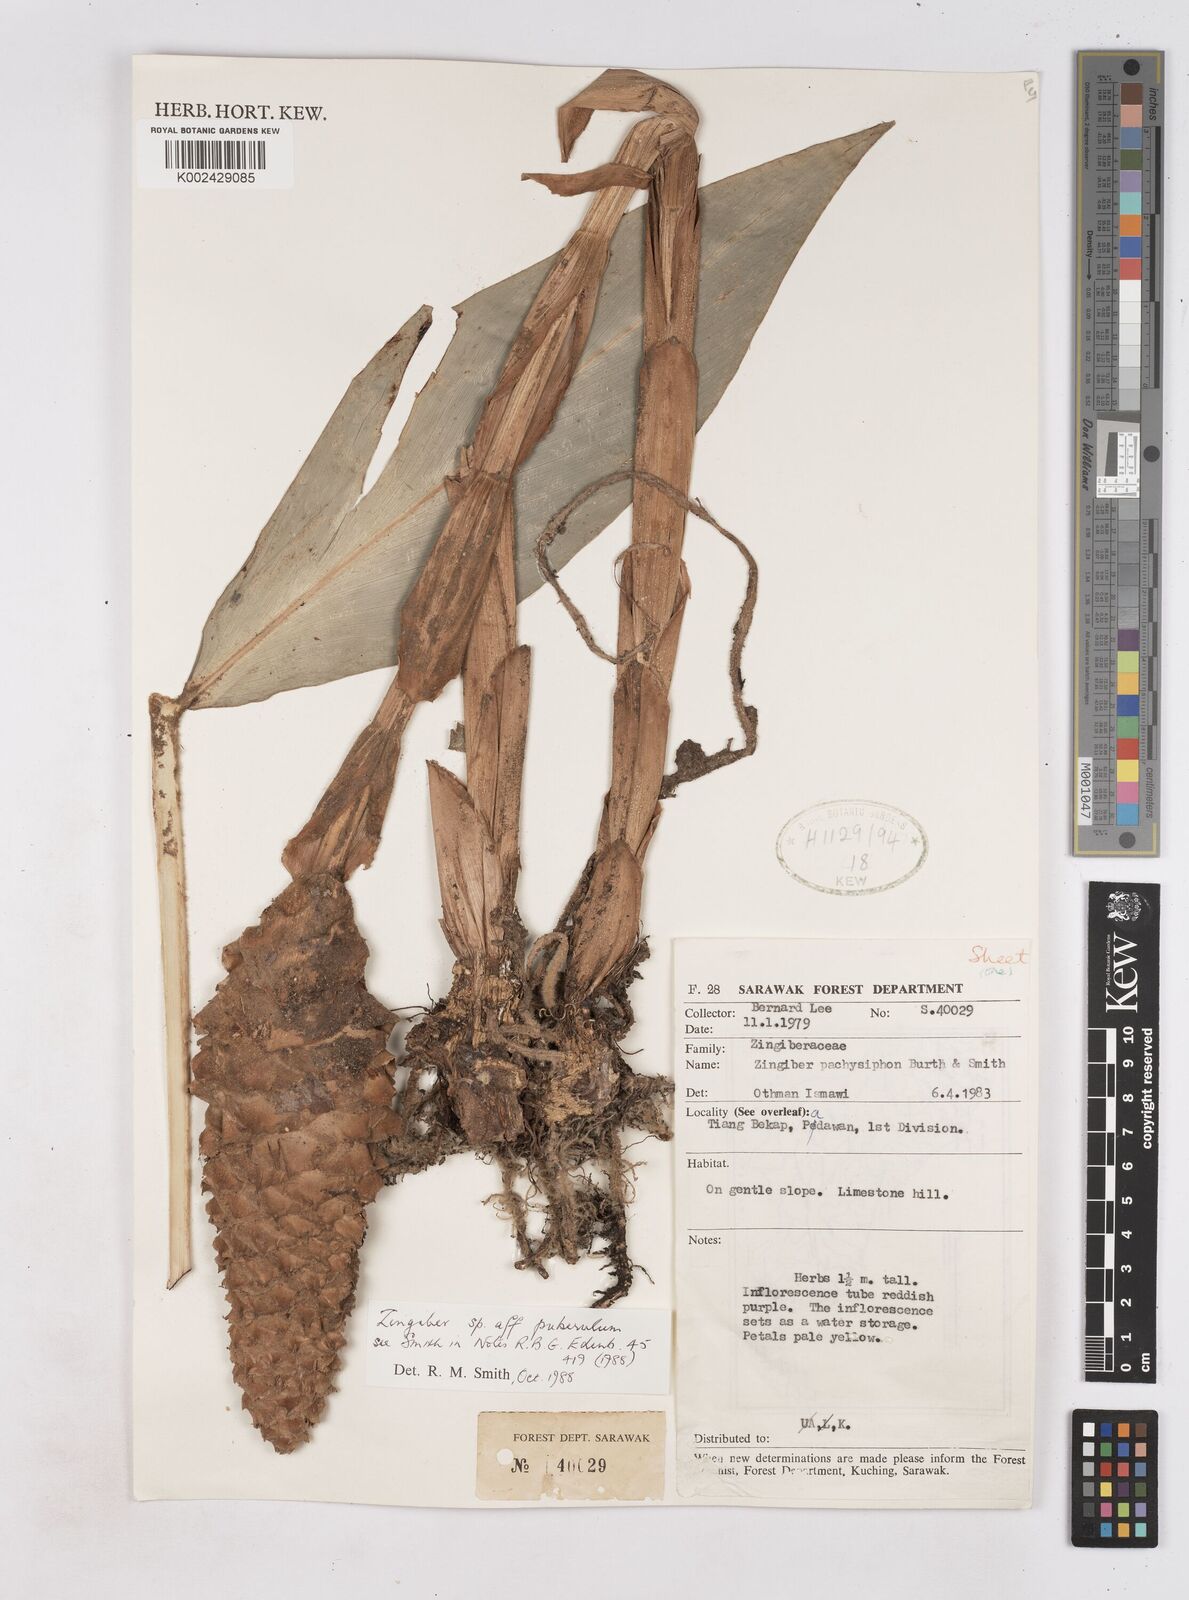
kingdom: Plantae
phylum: Tracheophyta
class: Liliopsida
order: Zingiberales
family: Zingiberaceae
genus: Zingiber
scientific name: Zingiber puberulum
